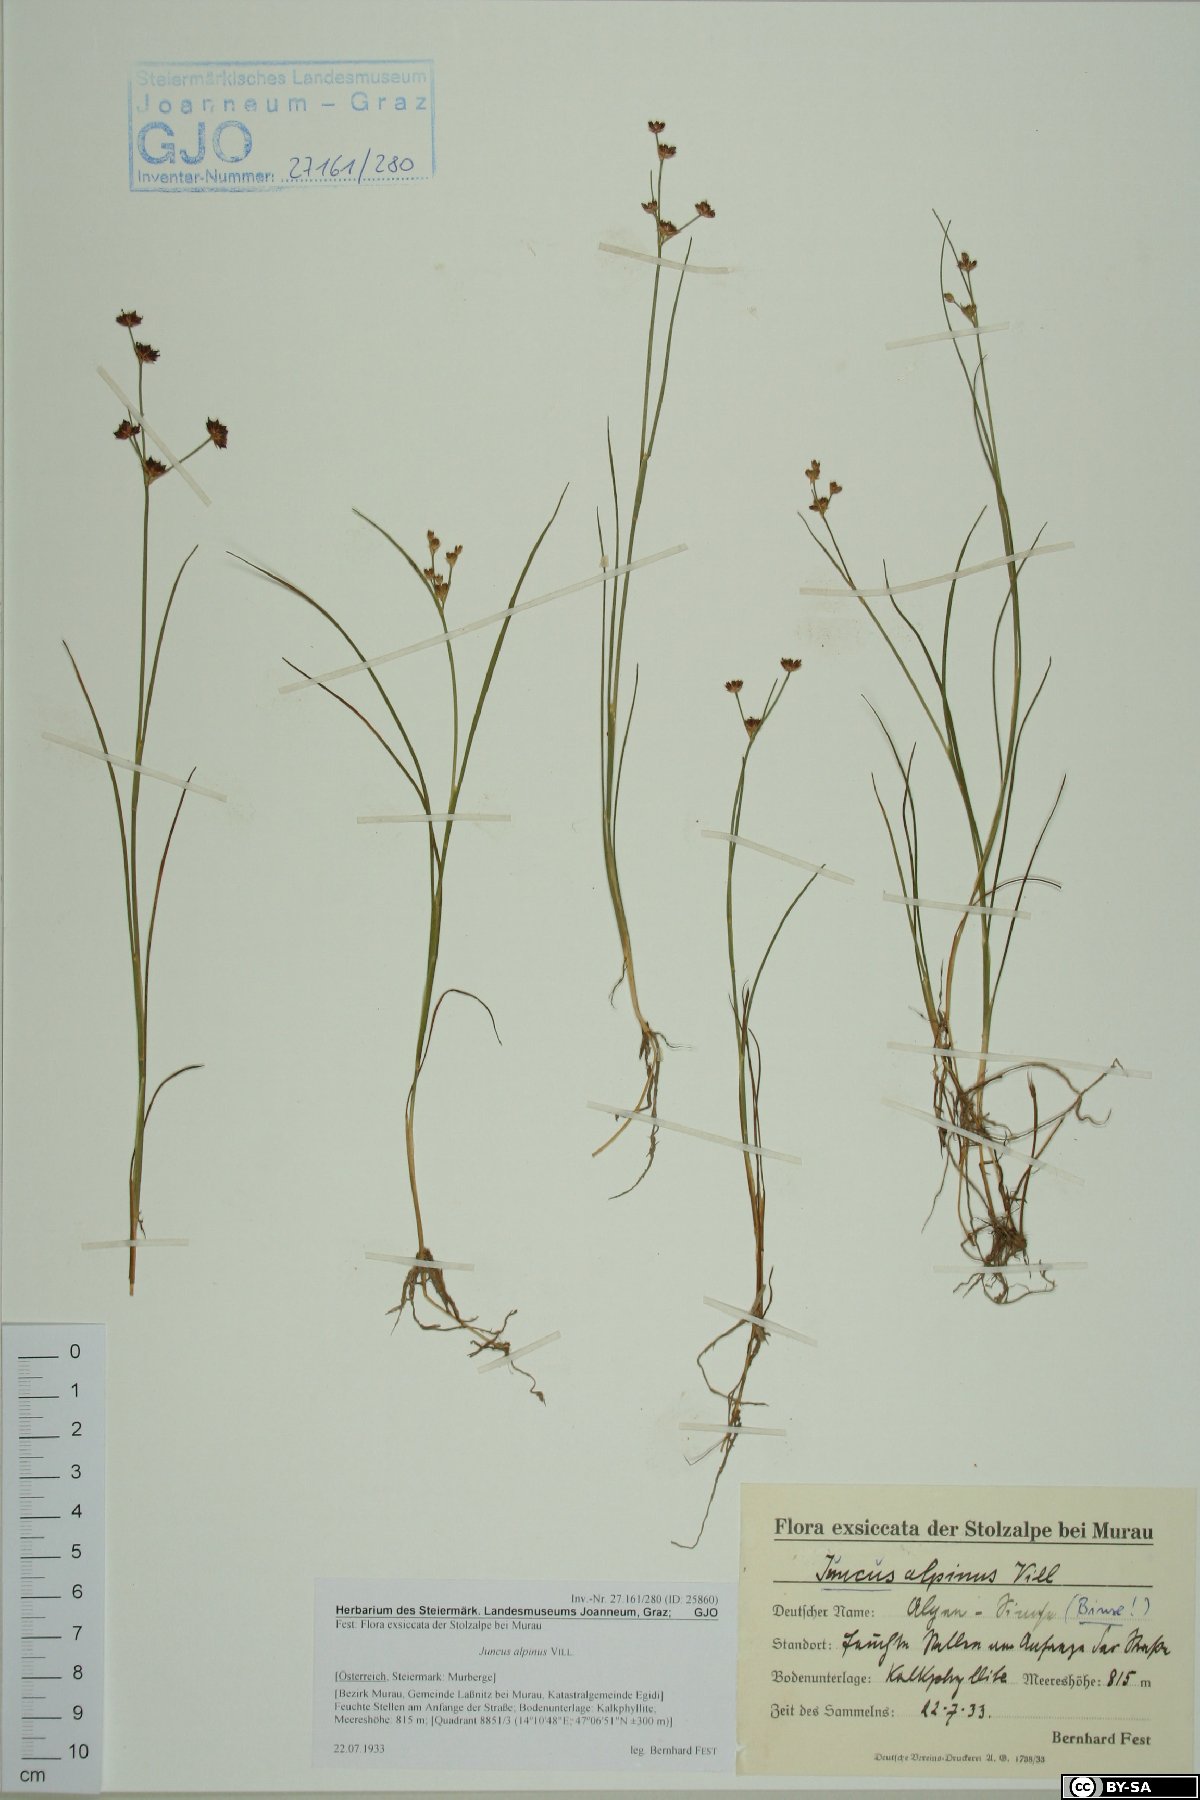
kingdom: Plantae
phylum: Tracheophyta
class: Liliopsida
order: Poales
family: Juncaceae
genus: Juncus
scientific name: Juncus alpinoarticulatus
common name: Alpine rush
